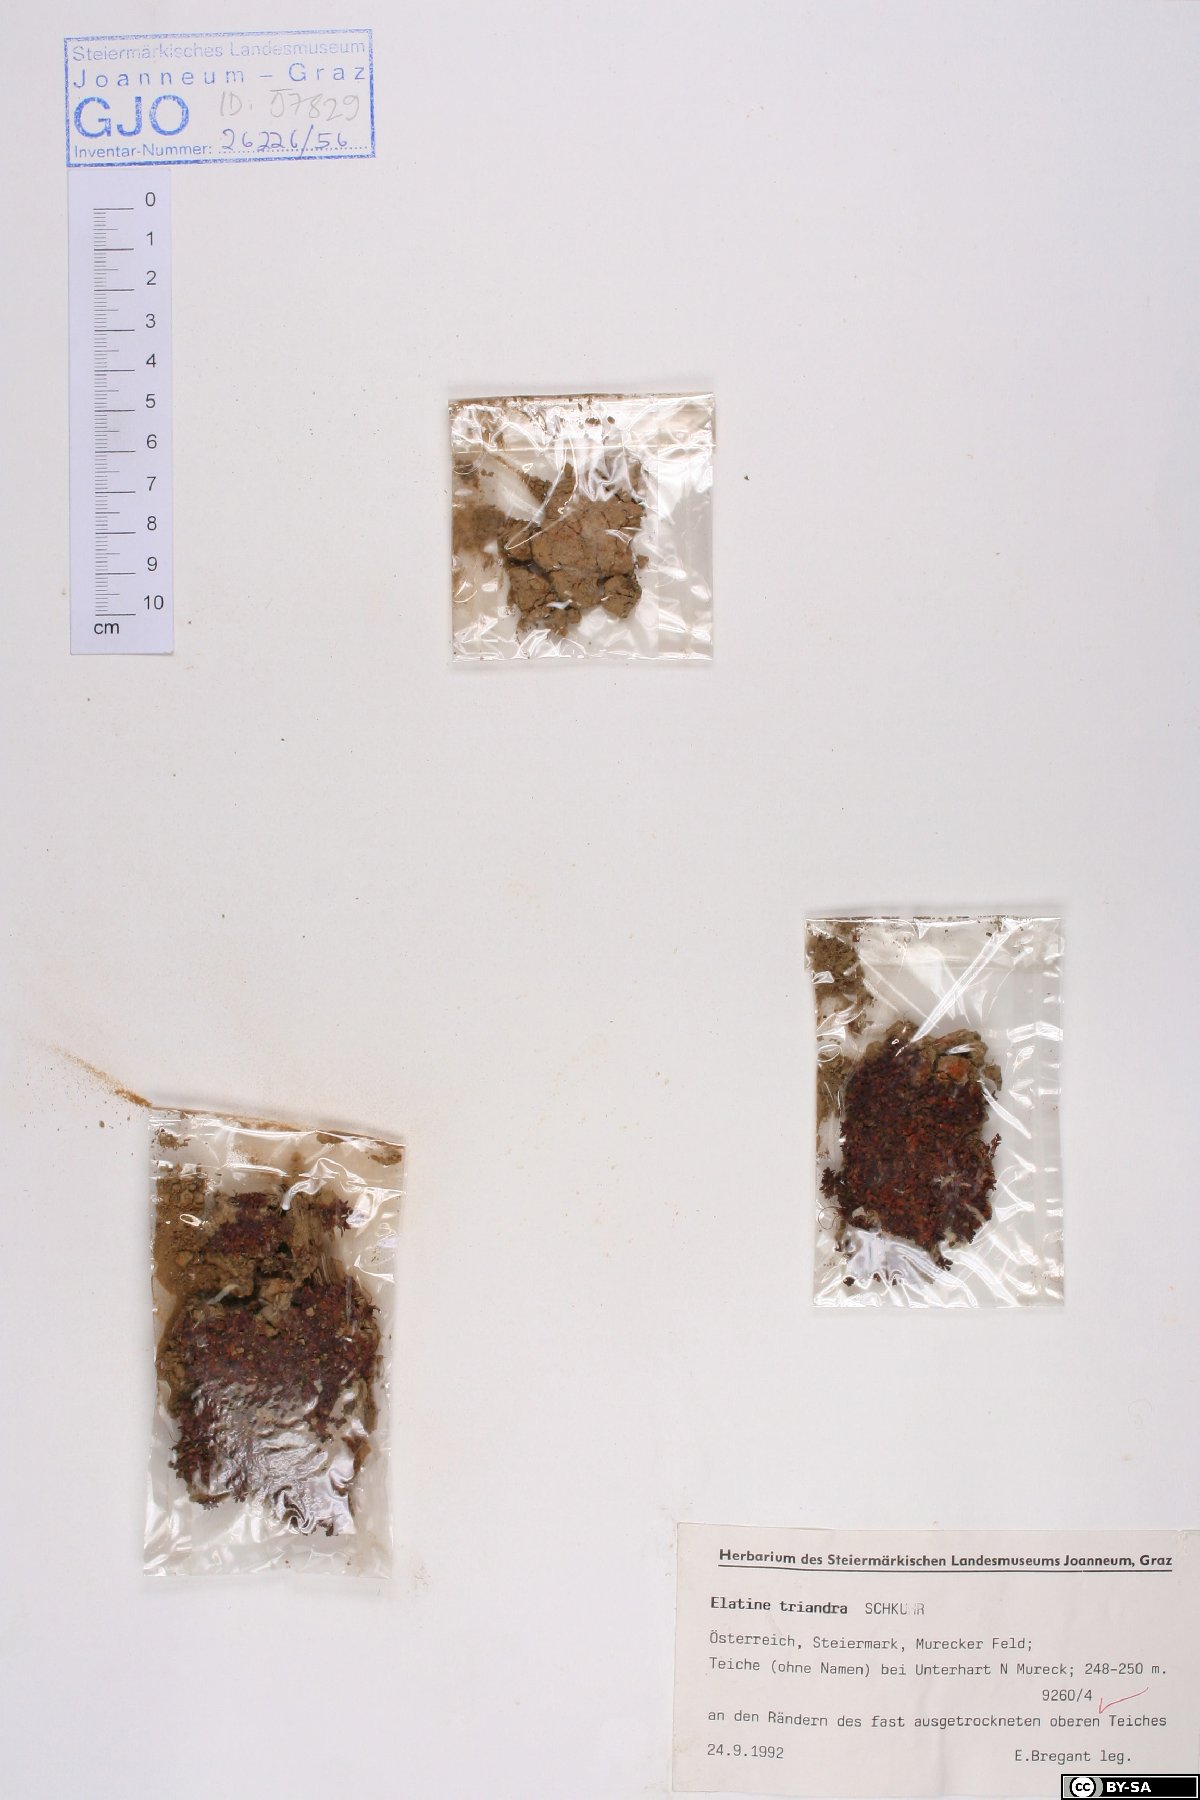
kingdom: Plantae
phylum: Tracheophyta
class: Magnoliopsida
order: Malpighiales
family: Elatinaceae
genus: Elatine
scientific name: Elatine triandra
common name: Three-stamened waterwort
